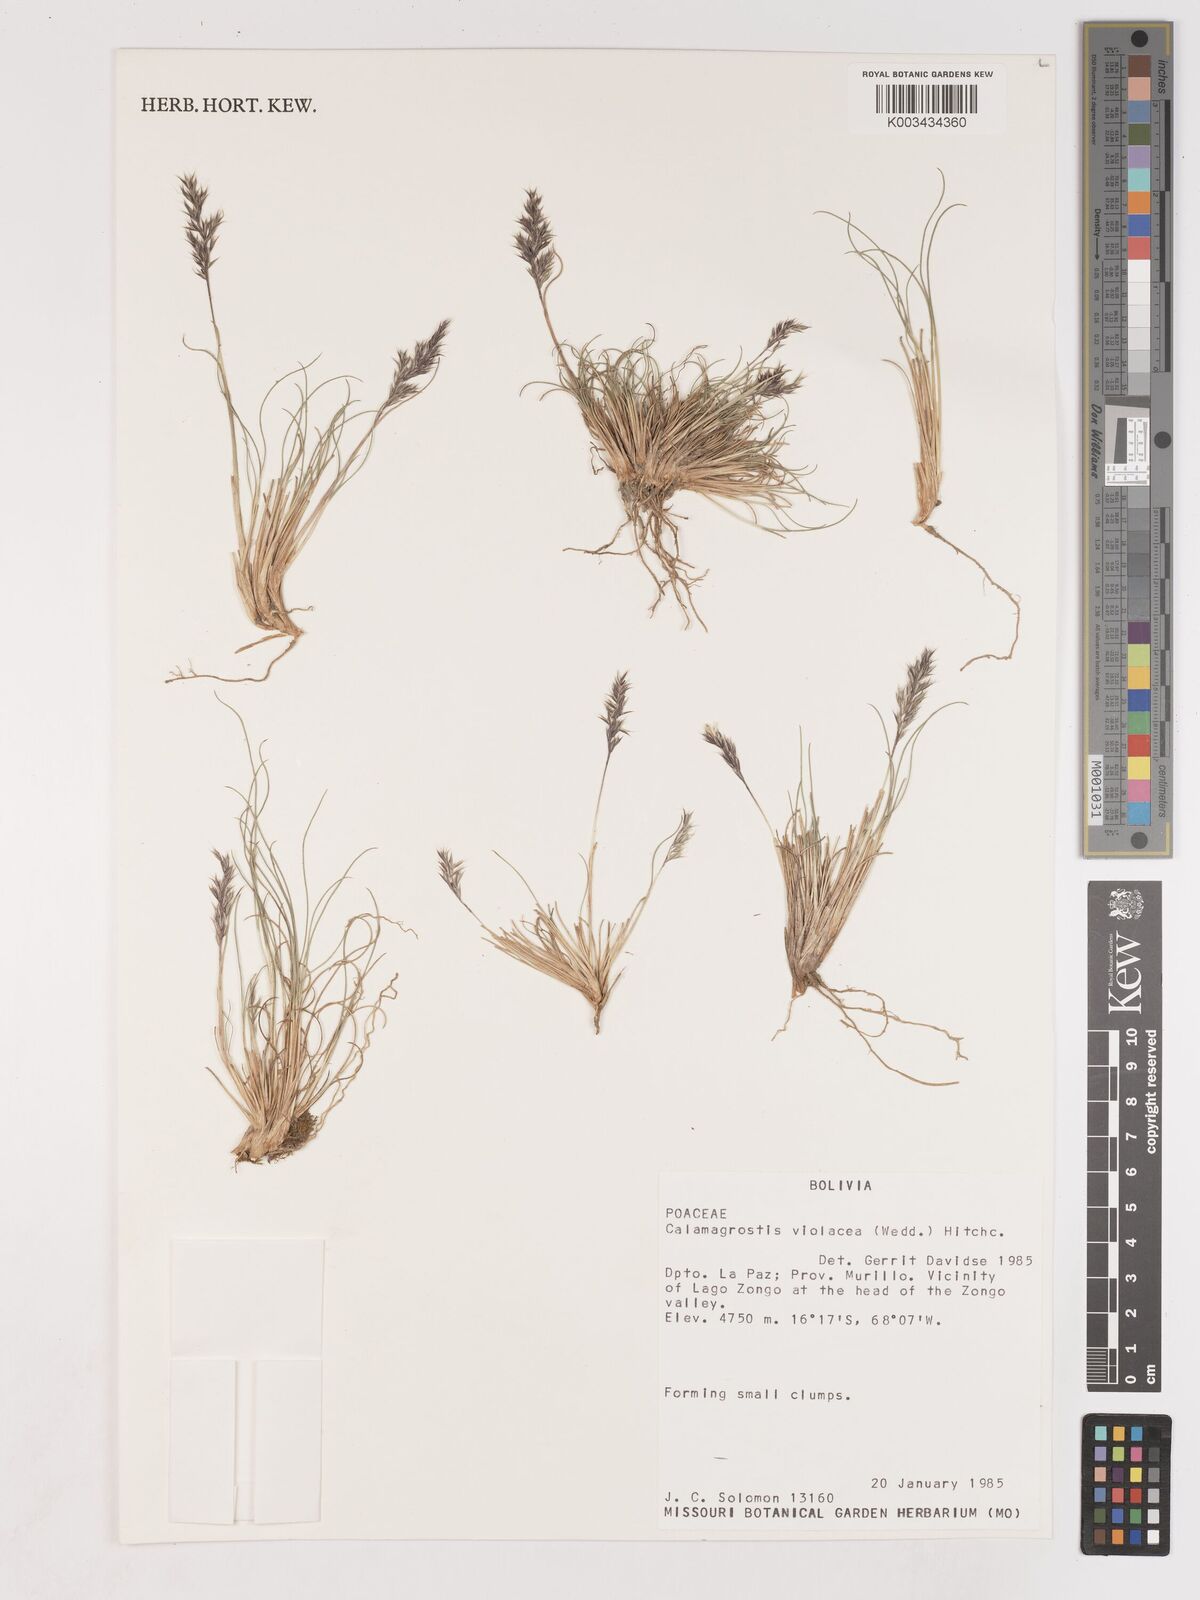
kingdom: Plantae
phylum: Tracheophyta
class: Liliopsida
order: Poales
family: Poaceae
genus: Cinnagrostis
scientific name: Cinnagrostis violacea
